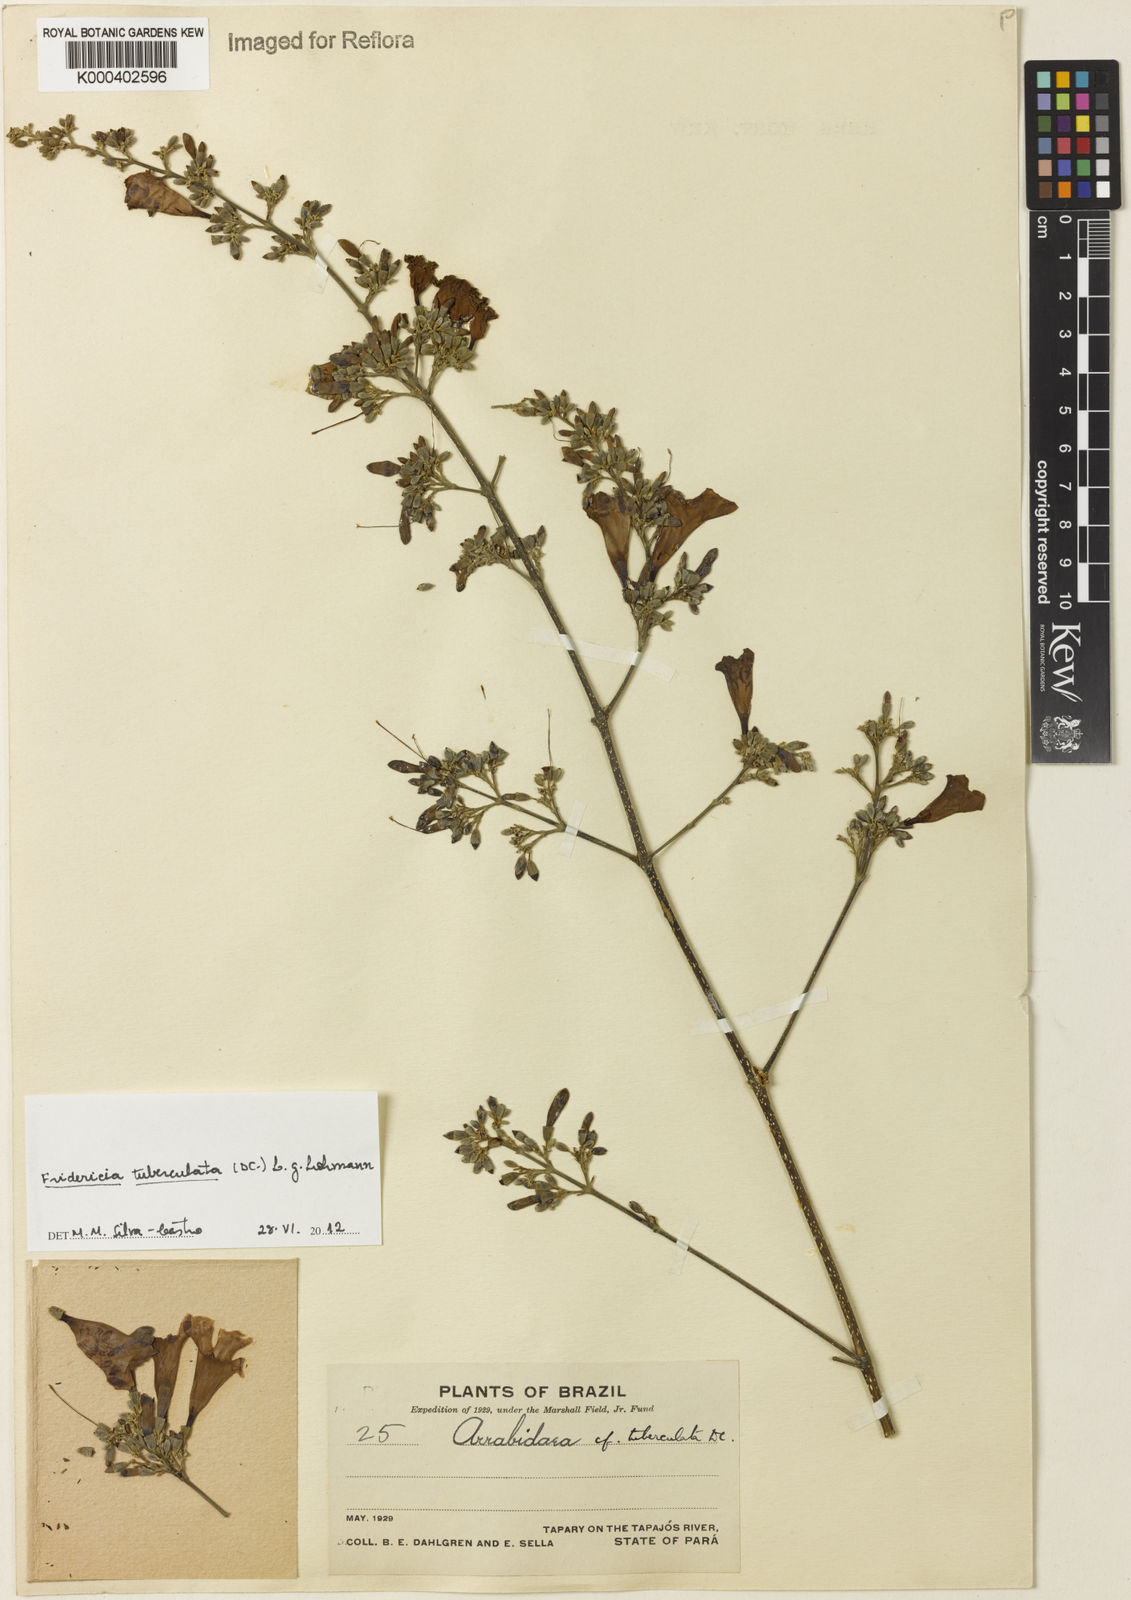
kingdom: Plantae
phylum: Tracheophyta
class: Magnoliopsida
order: Lamiales
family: Bignoniaceae
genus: Fridericia
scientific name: Fridericia tuberculata
